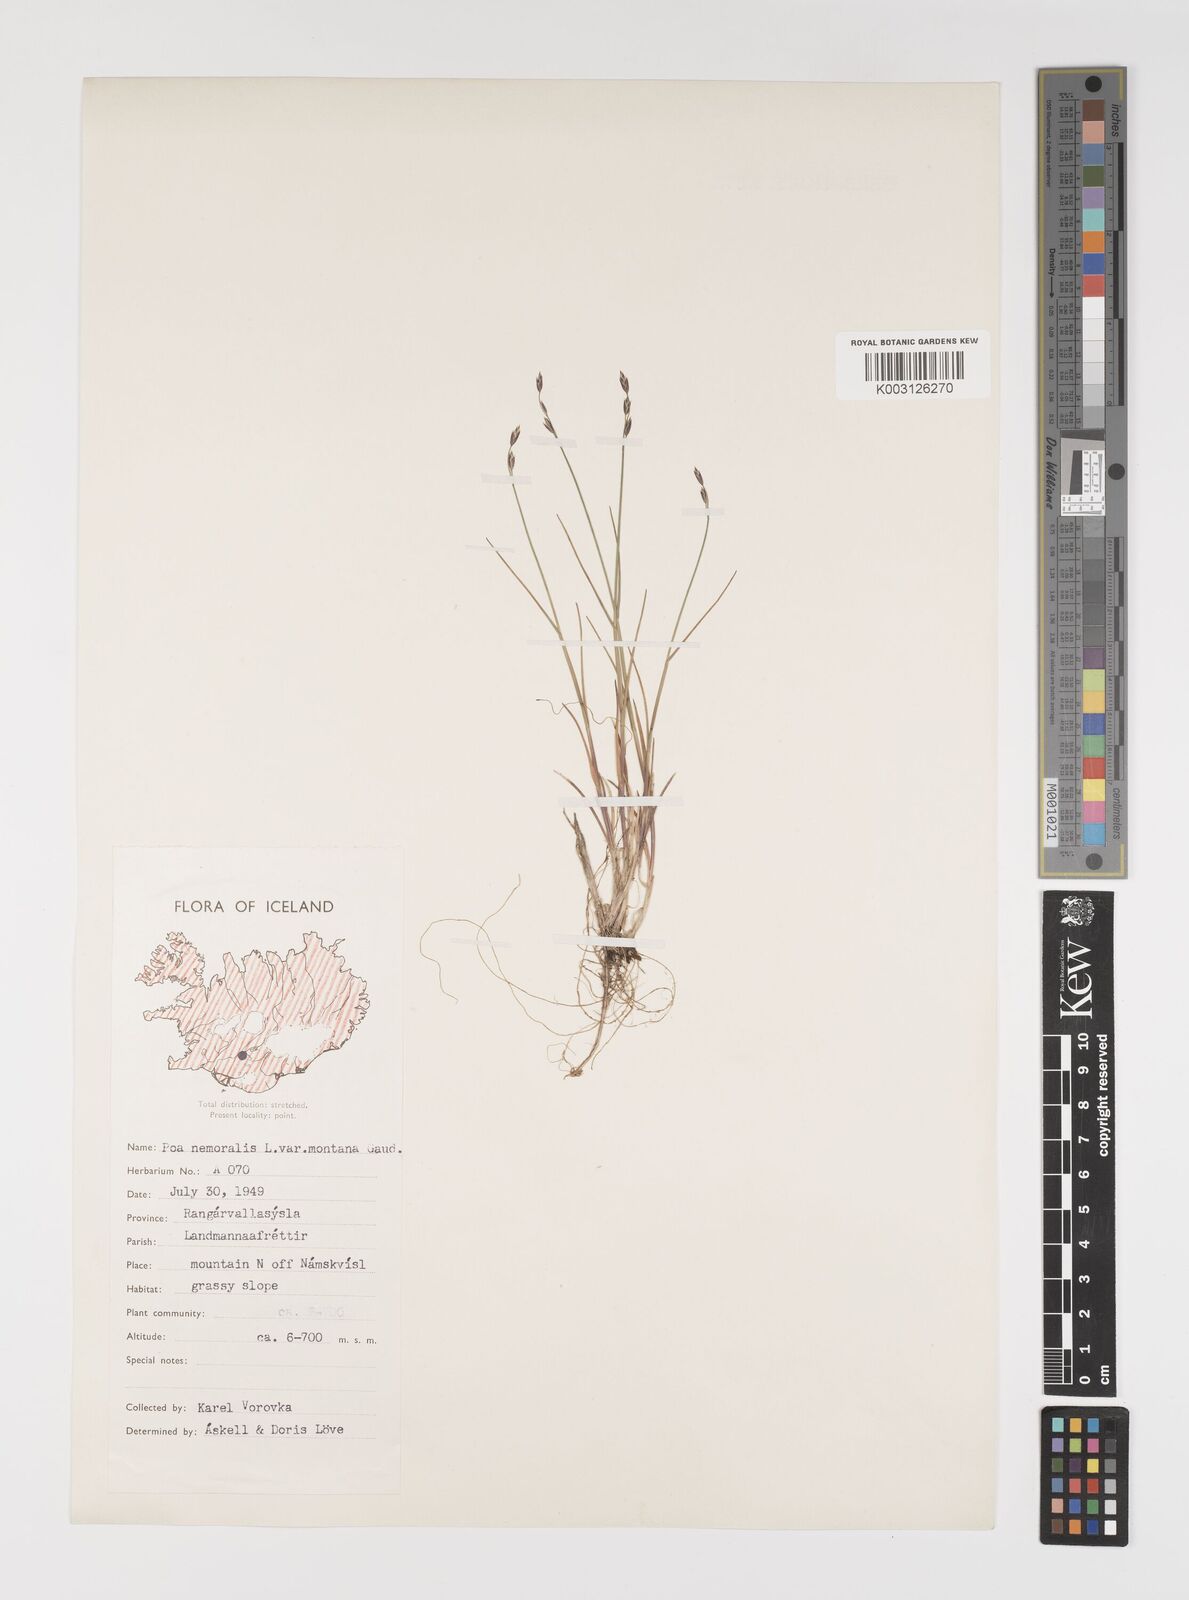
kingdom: Plantae
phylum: Tracheophyta
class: Liliopsida
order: Poales
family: Poaceae
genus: Poa
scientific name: Poa glauca
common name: Glaucous bluegrass
